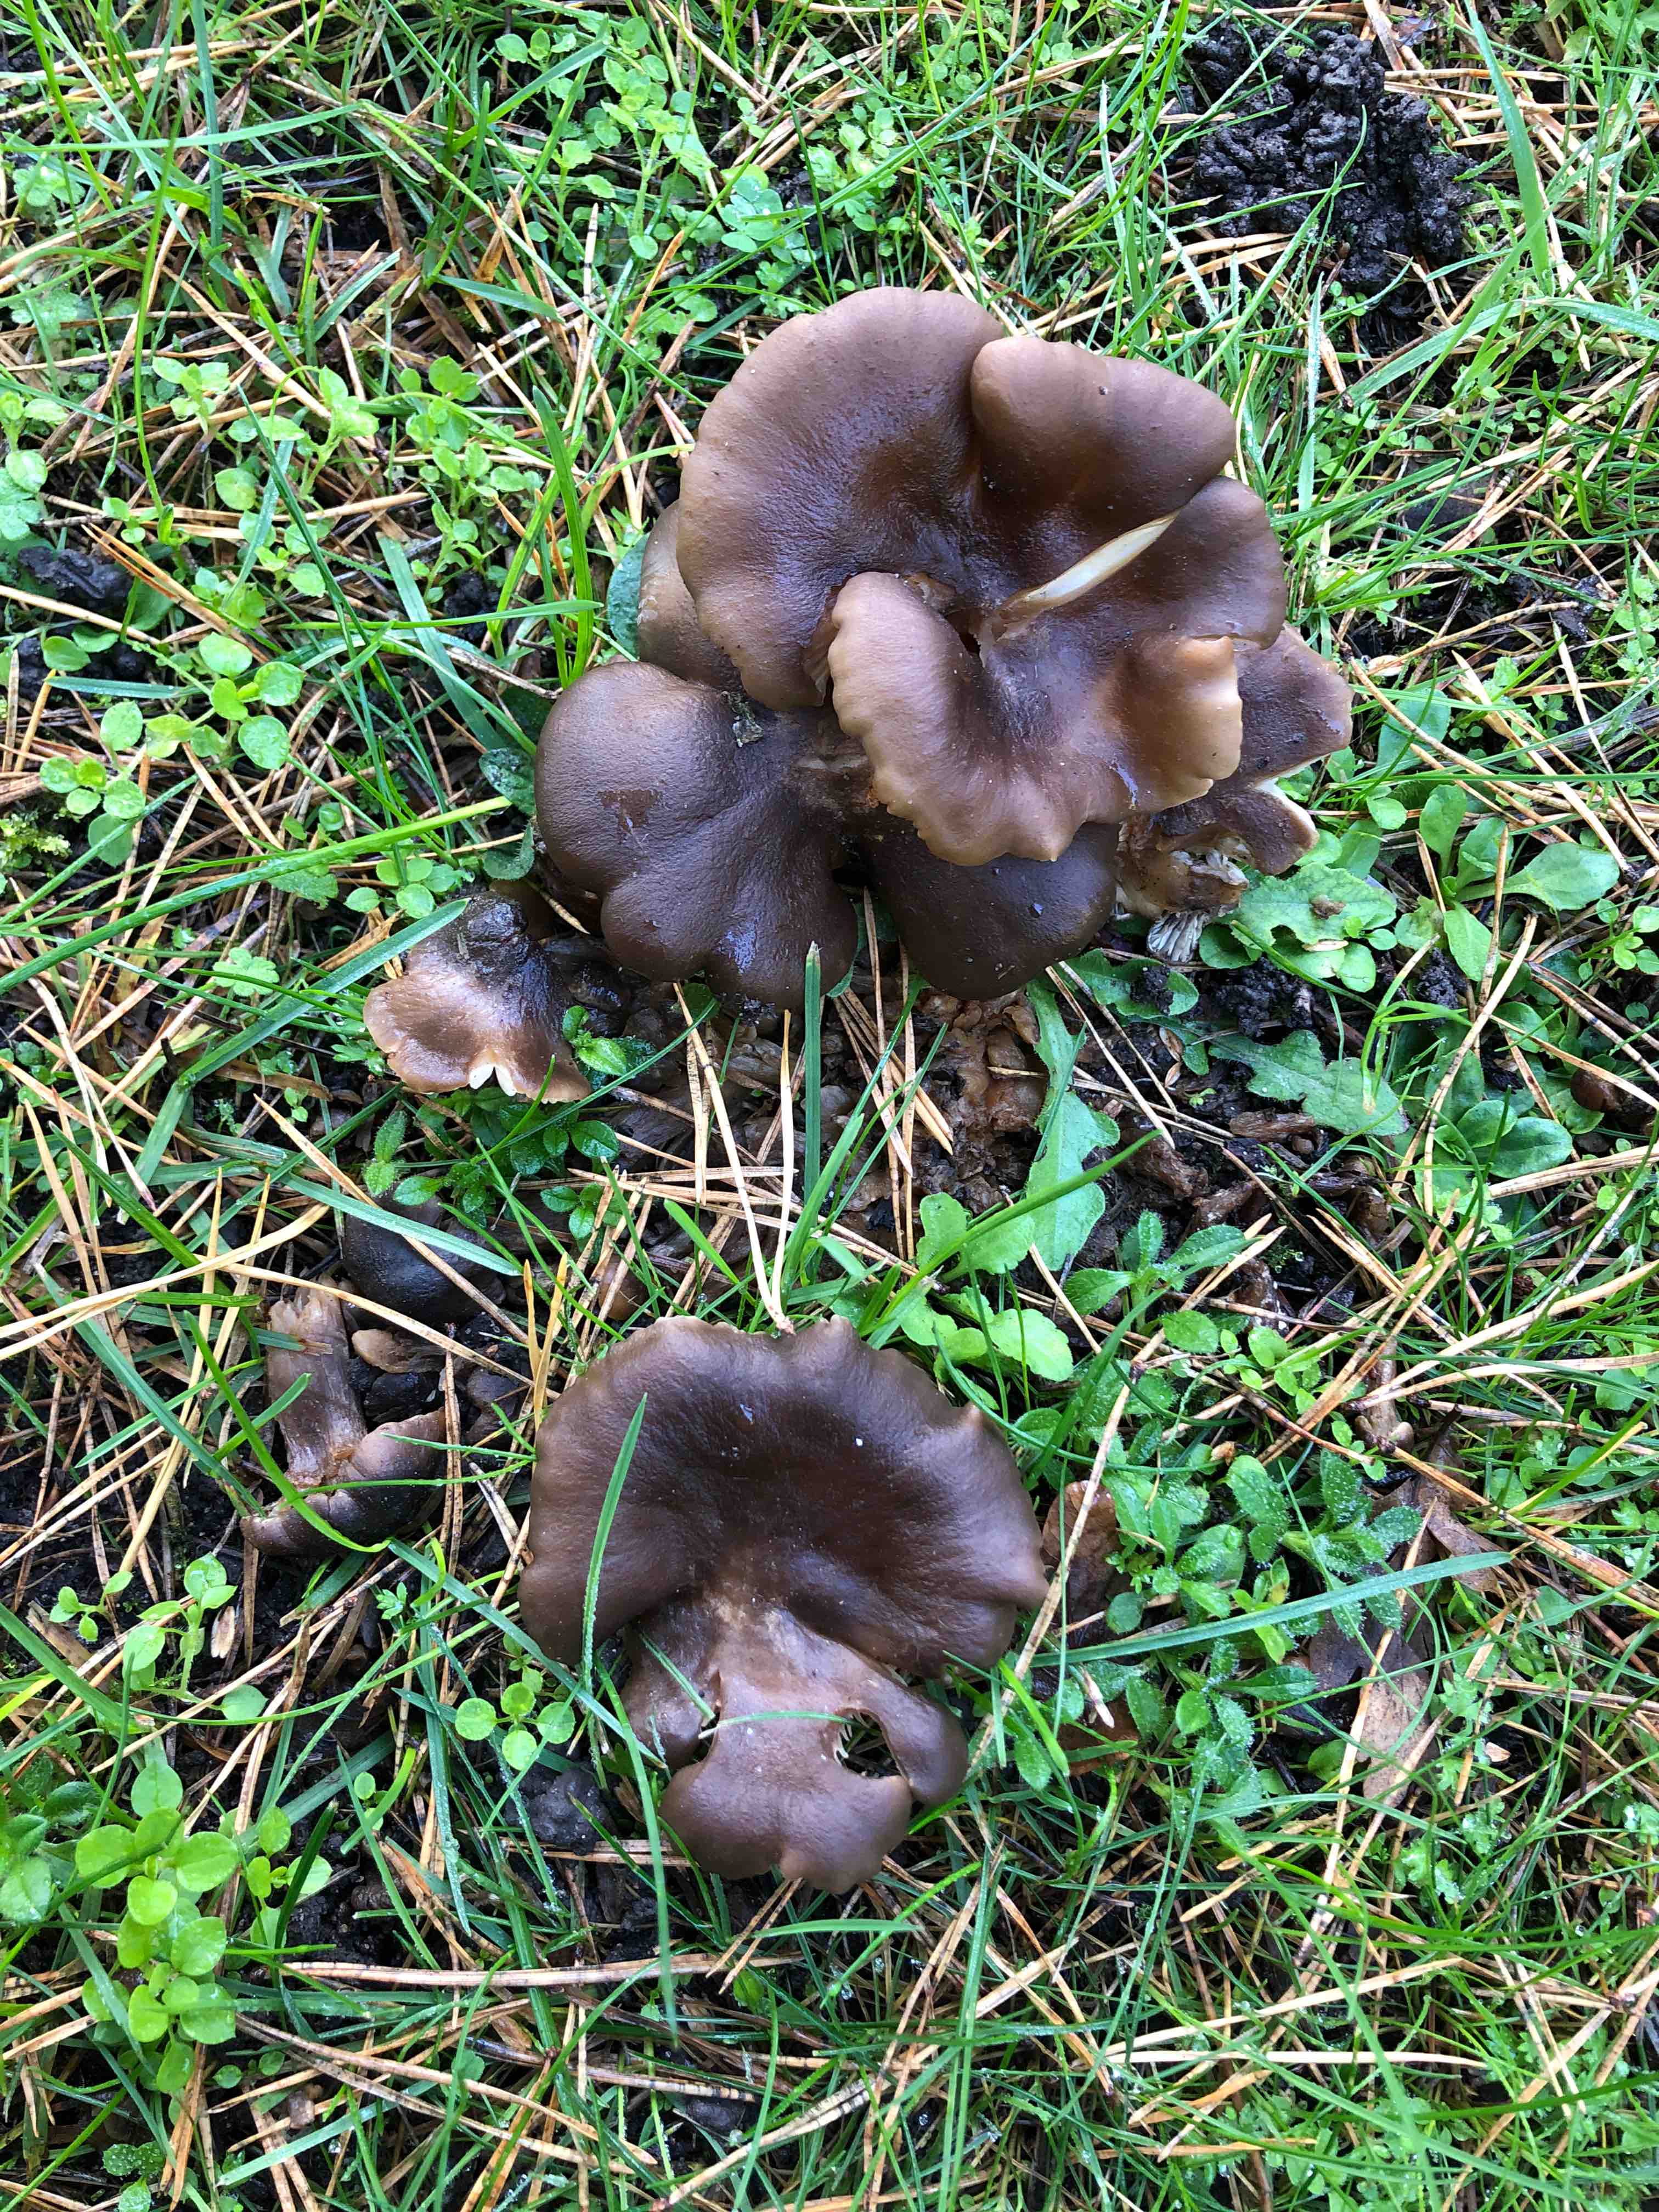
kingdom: Fungi
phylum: Basidiomycota
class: Agaricomycetes
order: Agaricales
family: Lyophyllaceae
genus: Lyophyllum
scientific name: Lyophyllum
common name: gråblad
